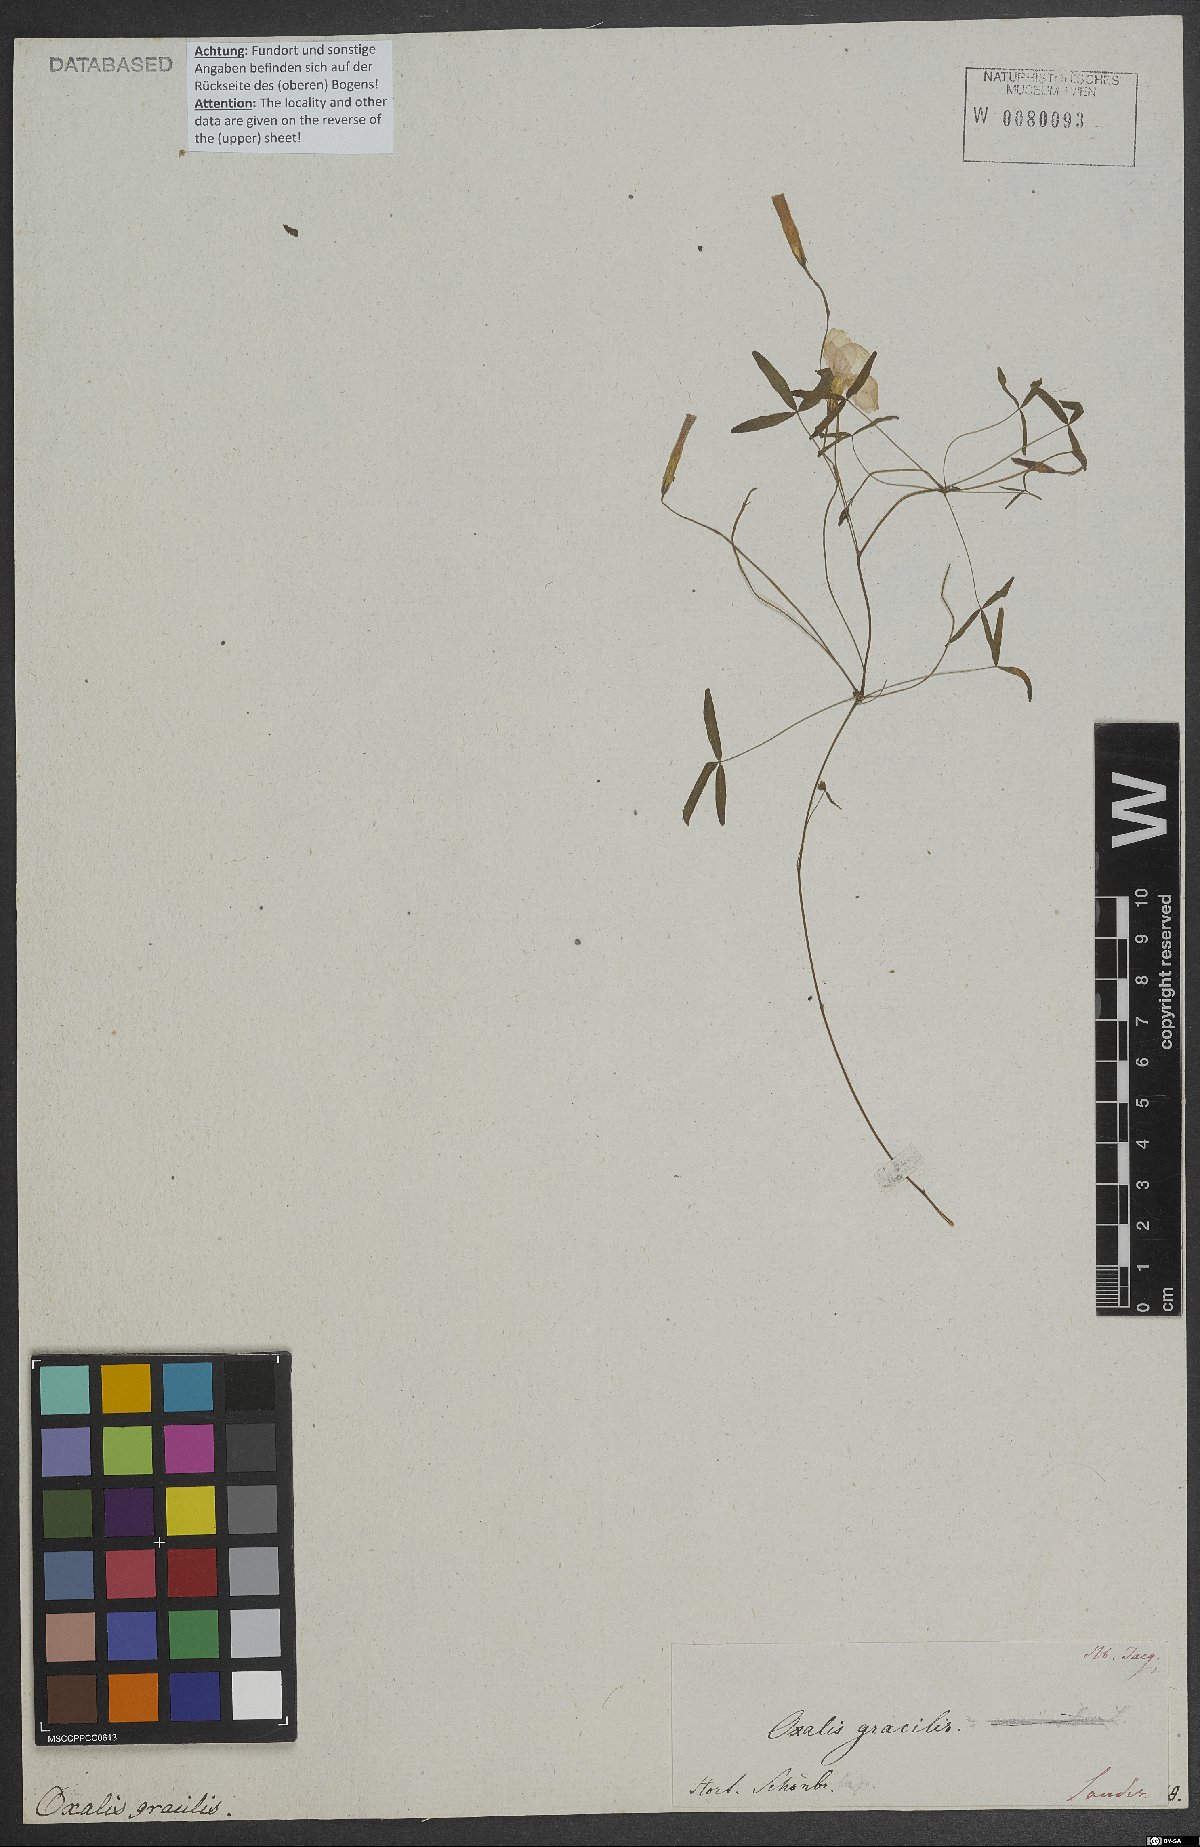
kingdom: Plantae
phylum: Tracheophyta
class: Magnoliopsida
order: Oxalidales
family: Oxalidaceae
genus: Oxalis
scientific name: Oxalis gracilis
